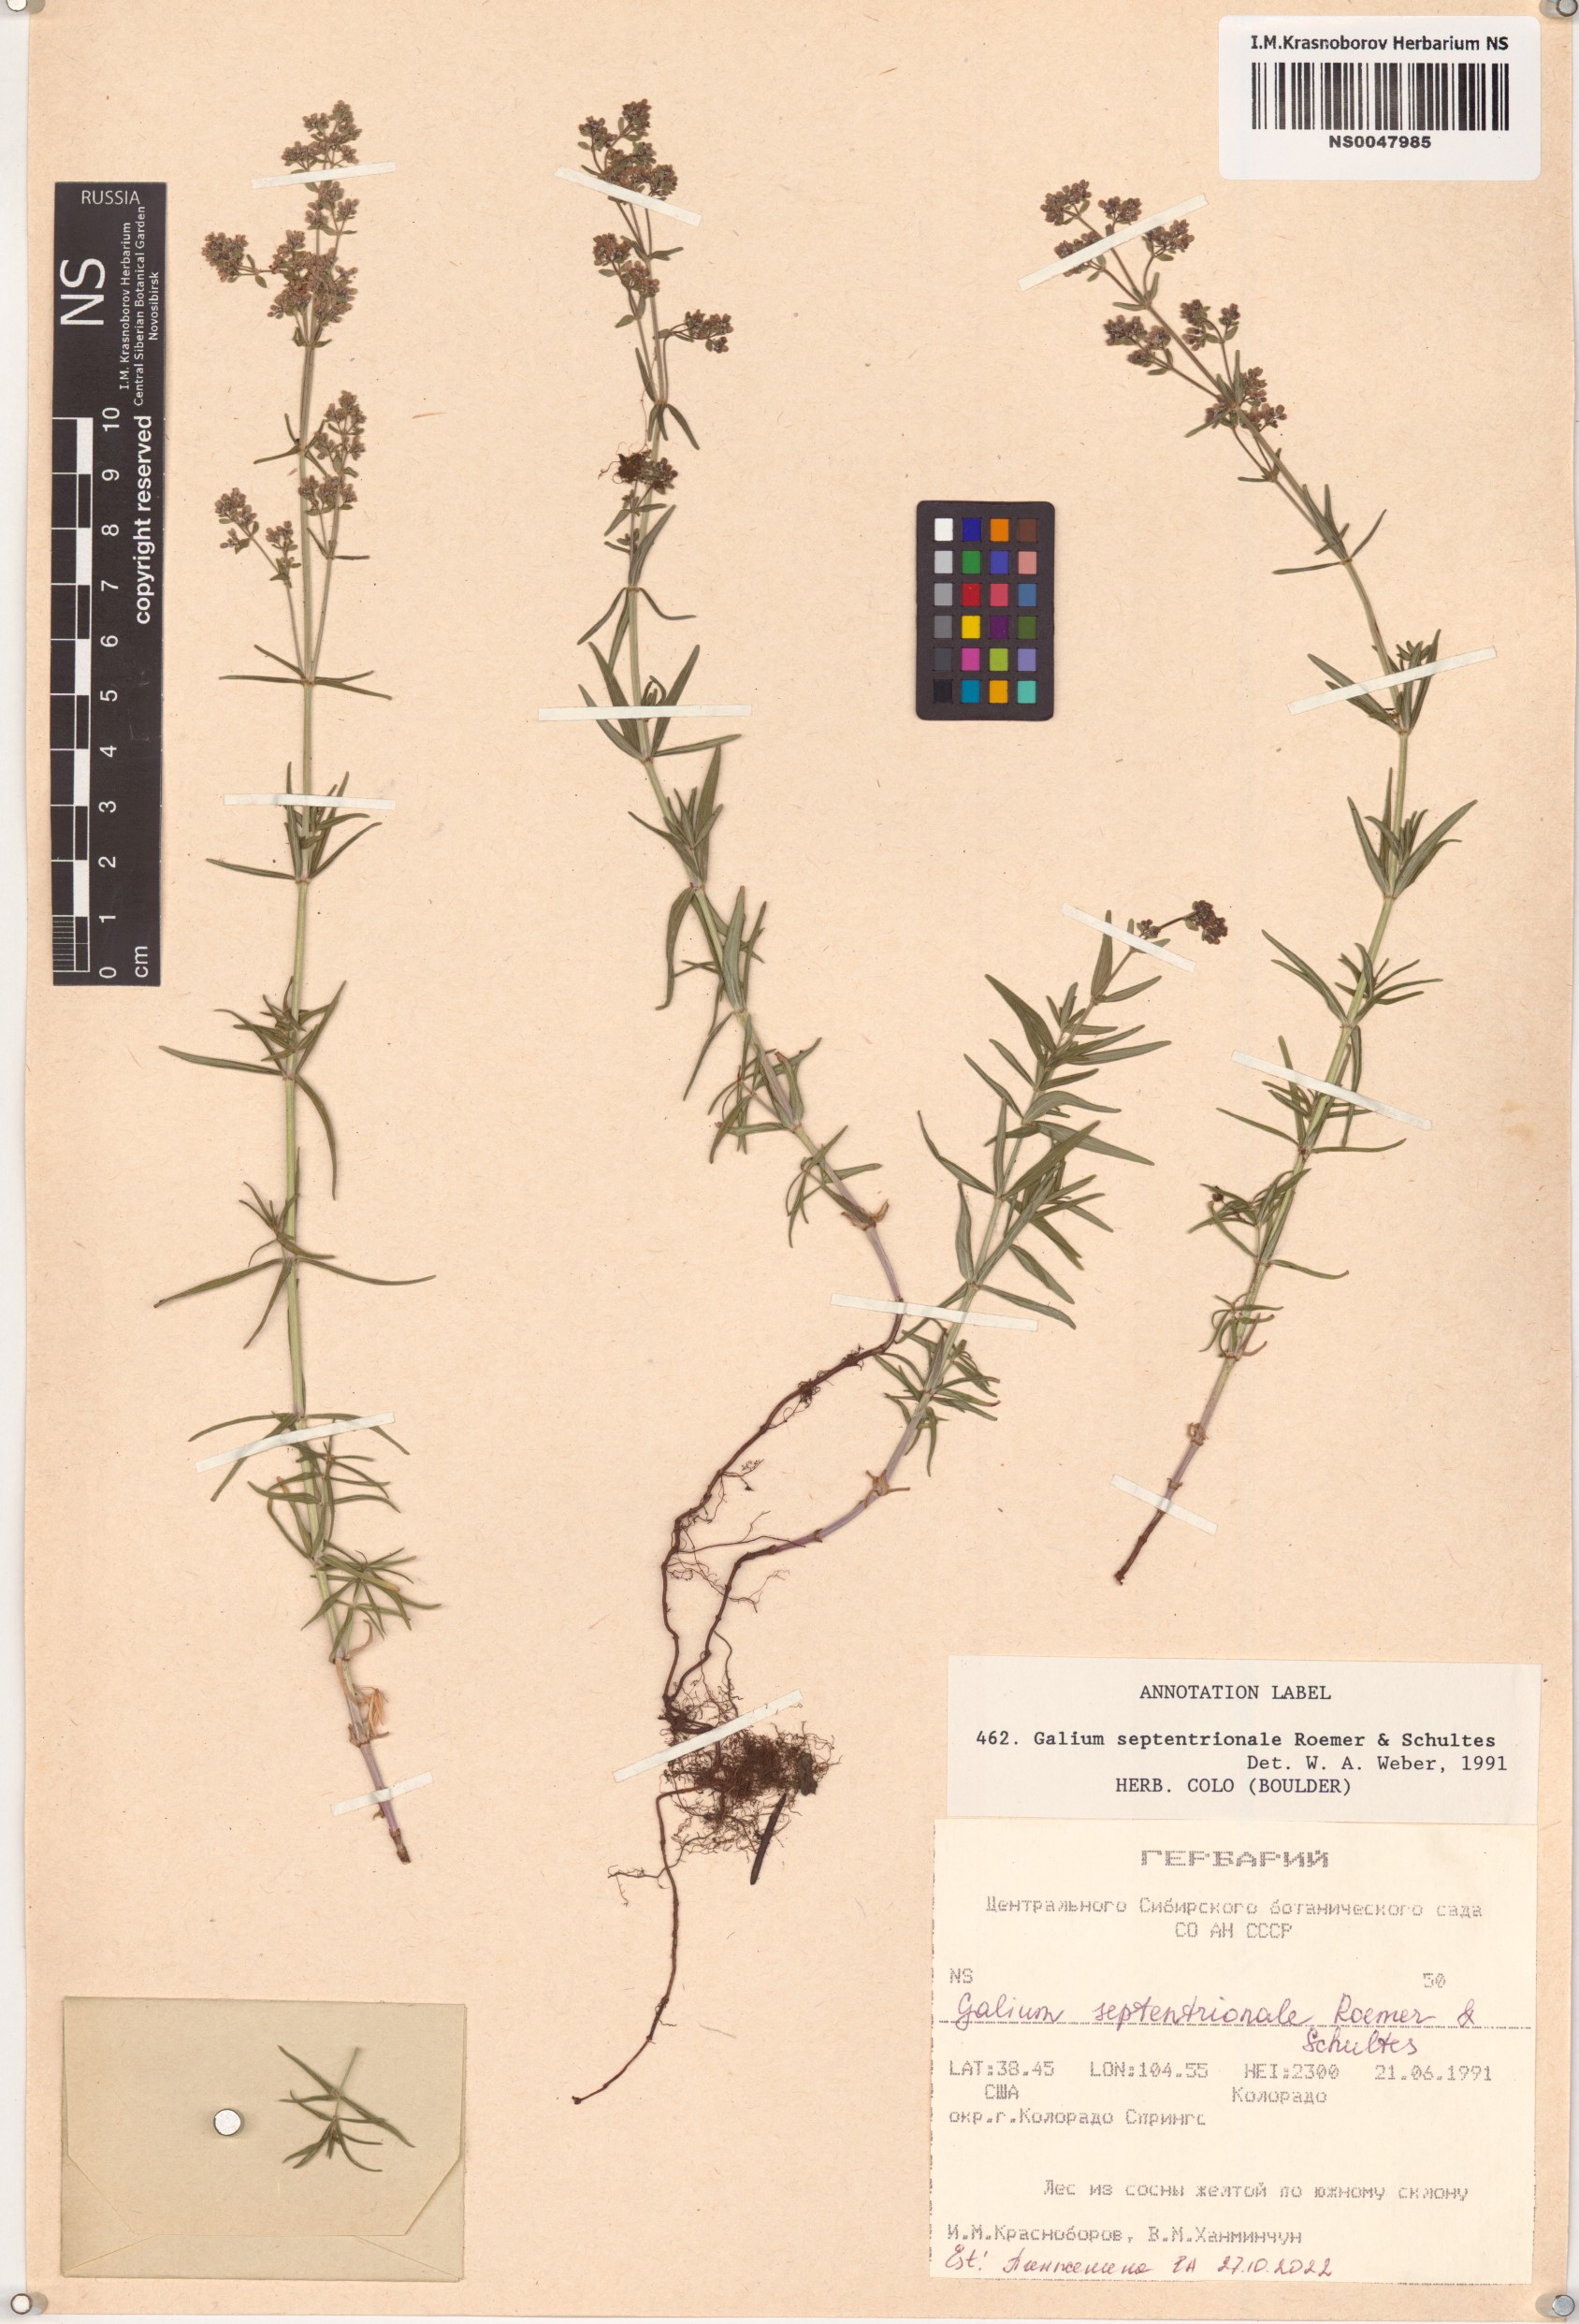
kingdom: Plantae
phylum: Tracheophyta
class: Magnoliopsida
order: Gentianales
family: Rubiaceae
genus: Galium
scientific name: Galium boreale
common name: Northern bedstraw
